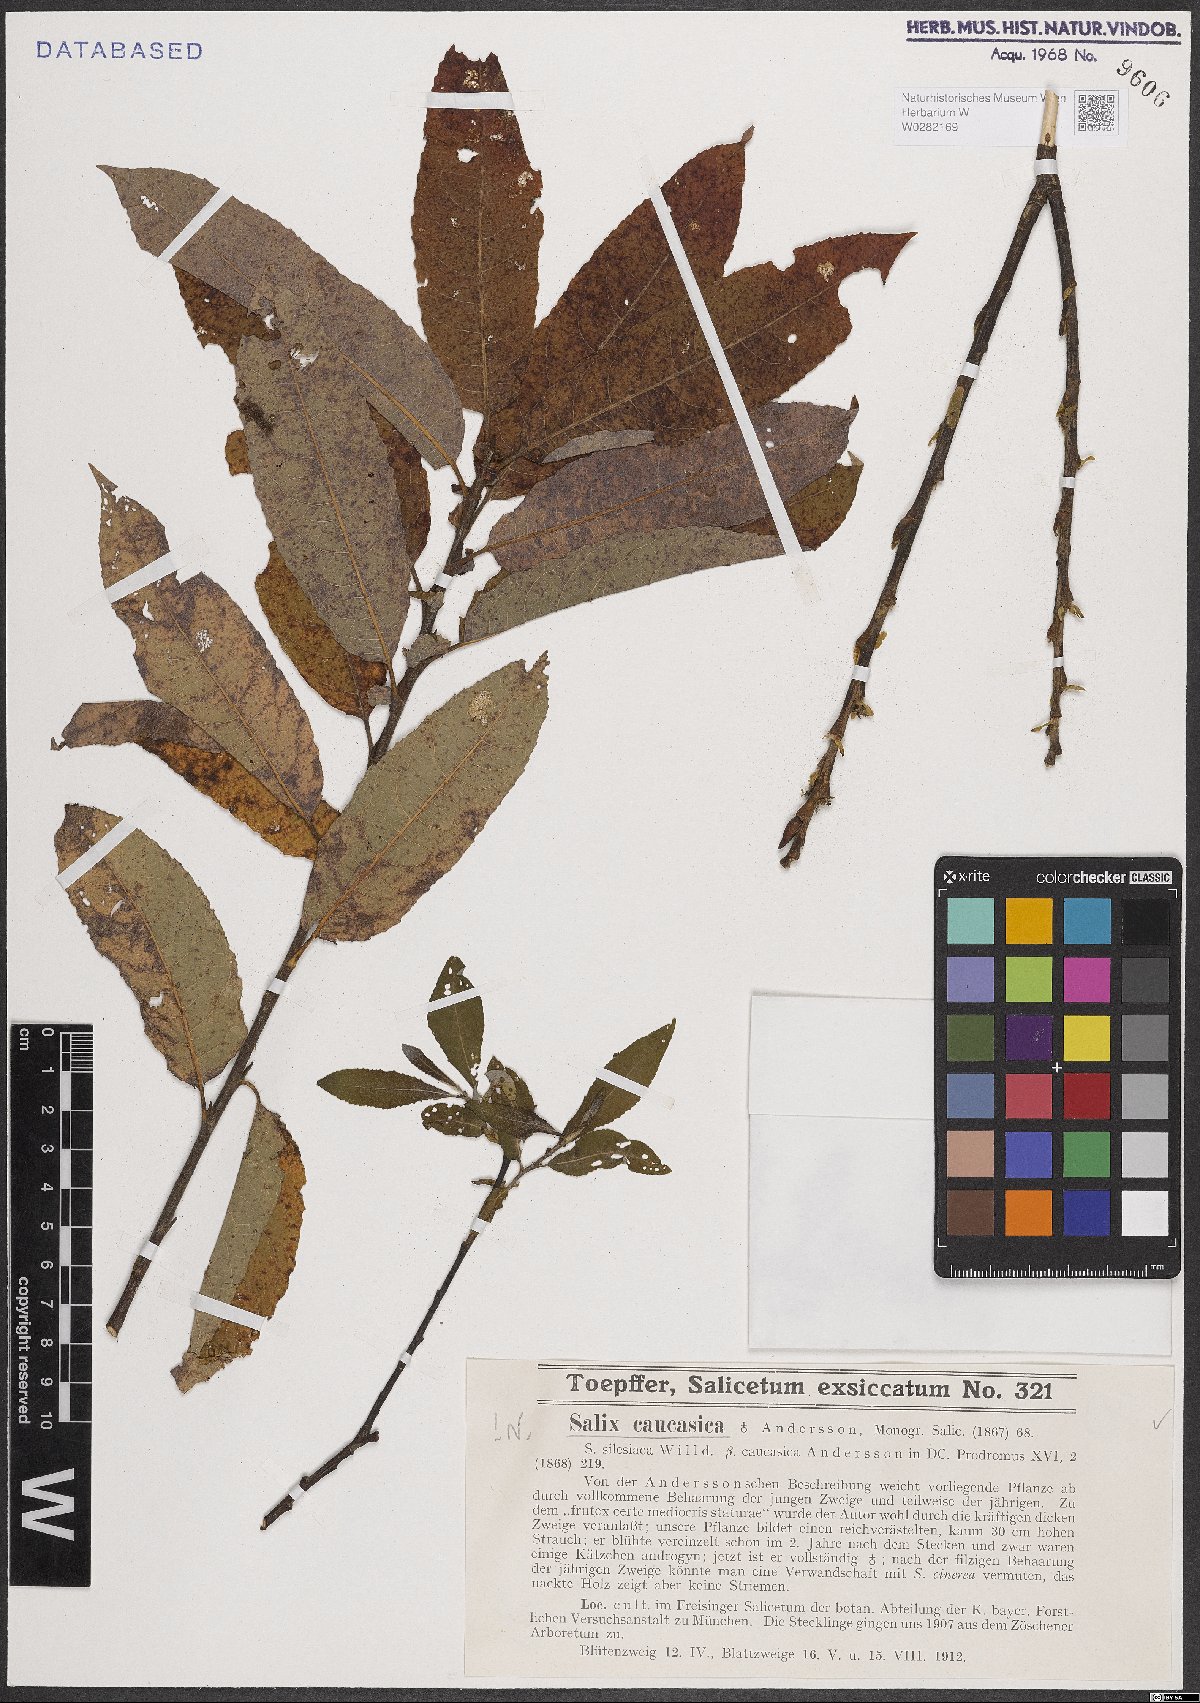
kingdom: Plantae
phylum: Tracheophyta
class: Magnoliopsida
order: Malpighiales
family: Salicaceae
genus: Salix
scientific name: Salix caucasica
